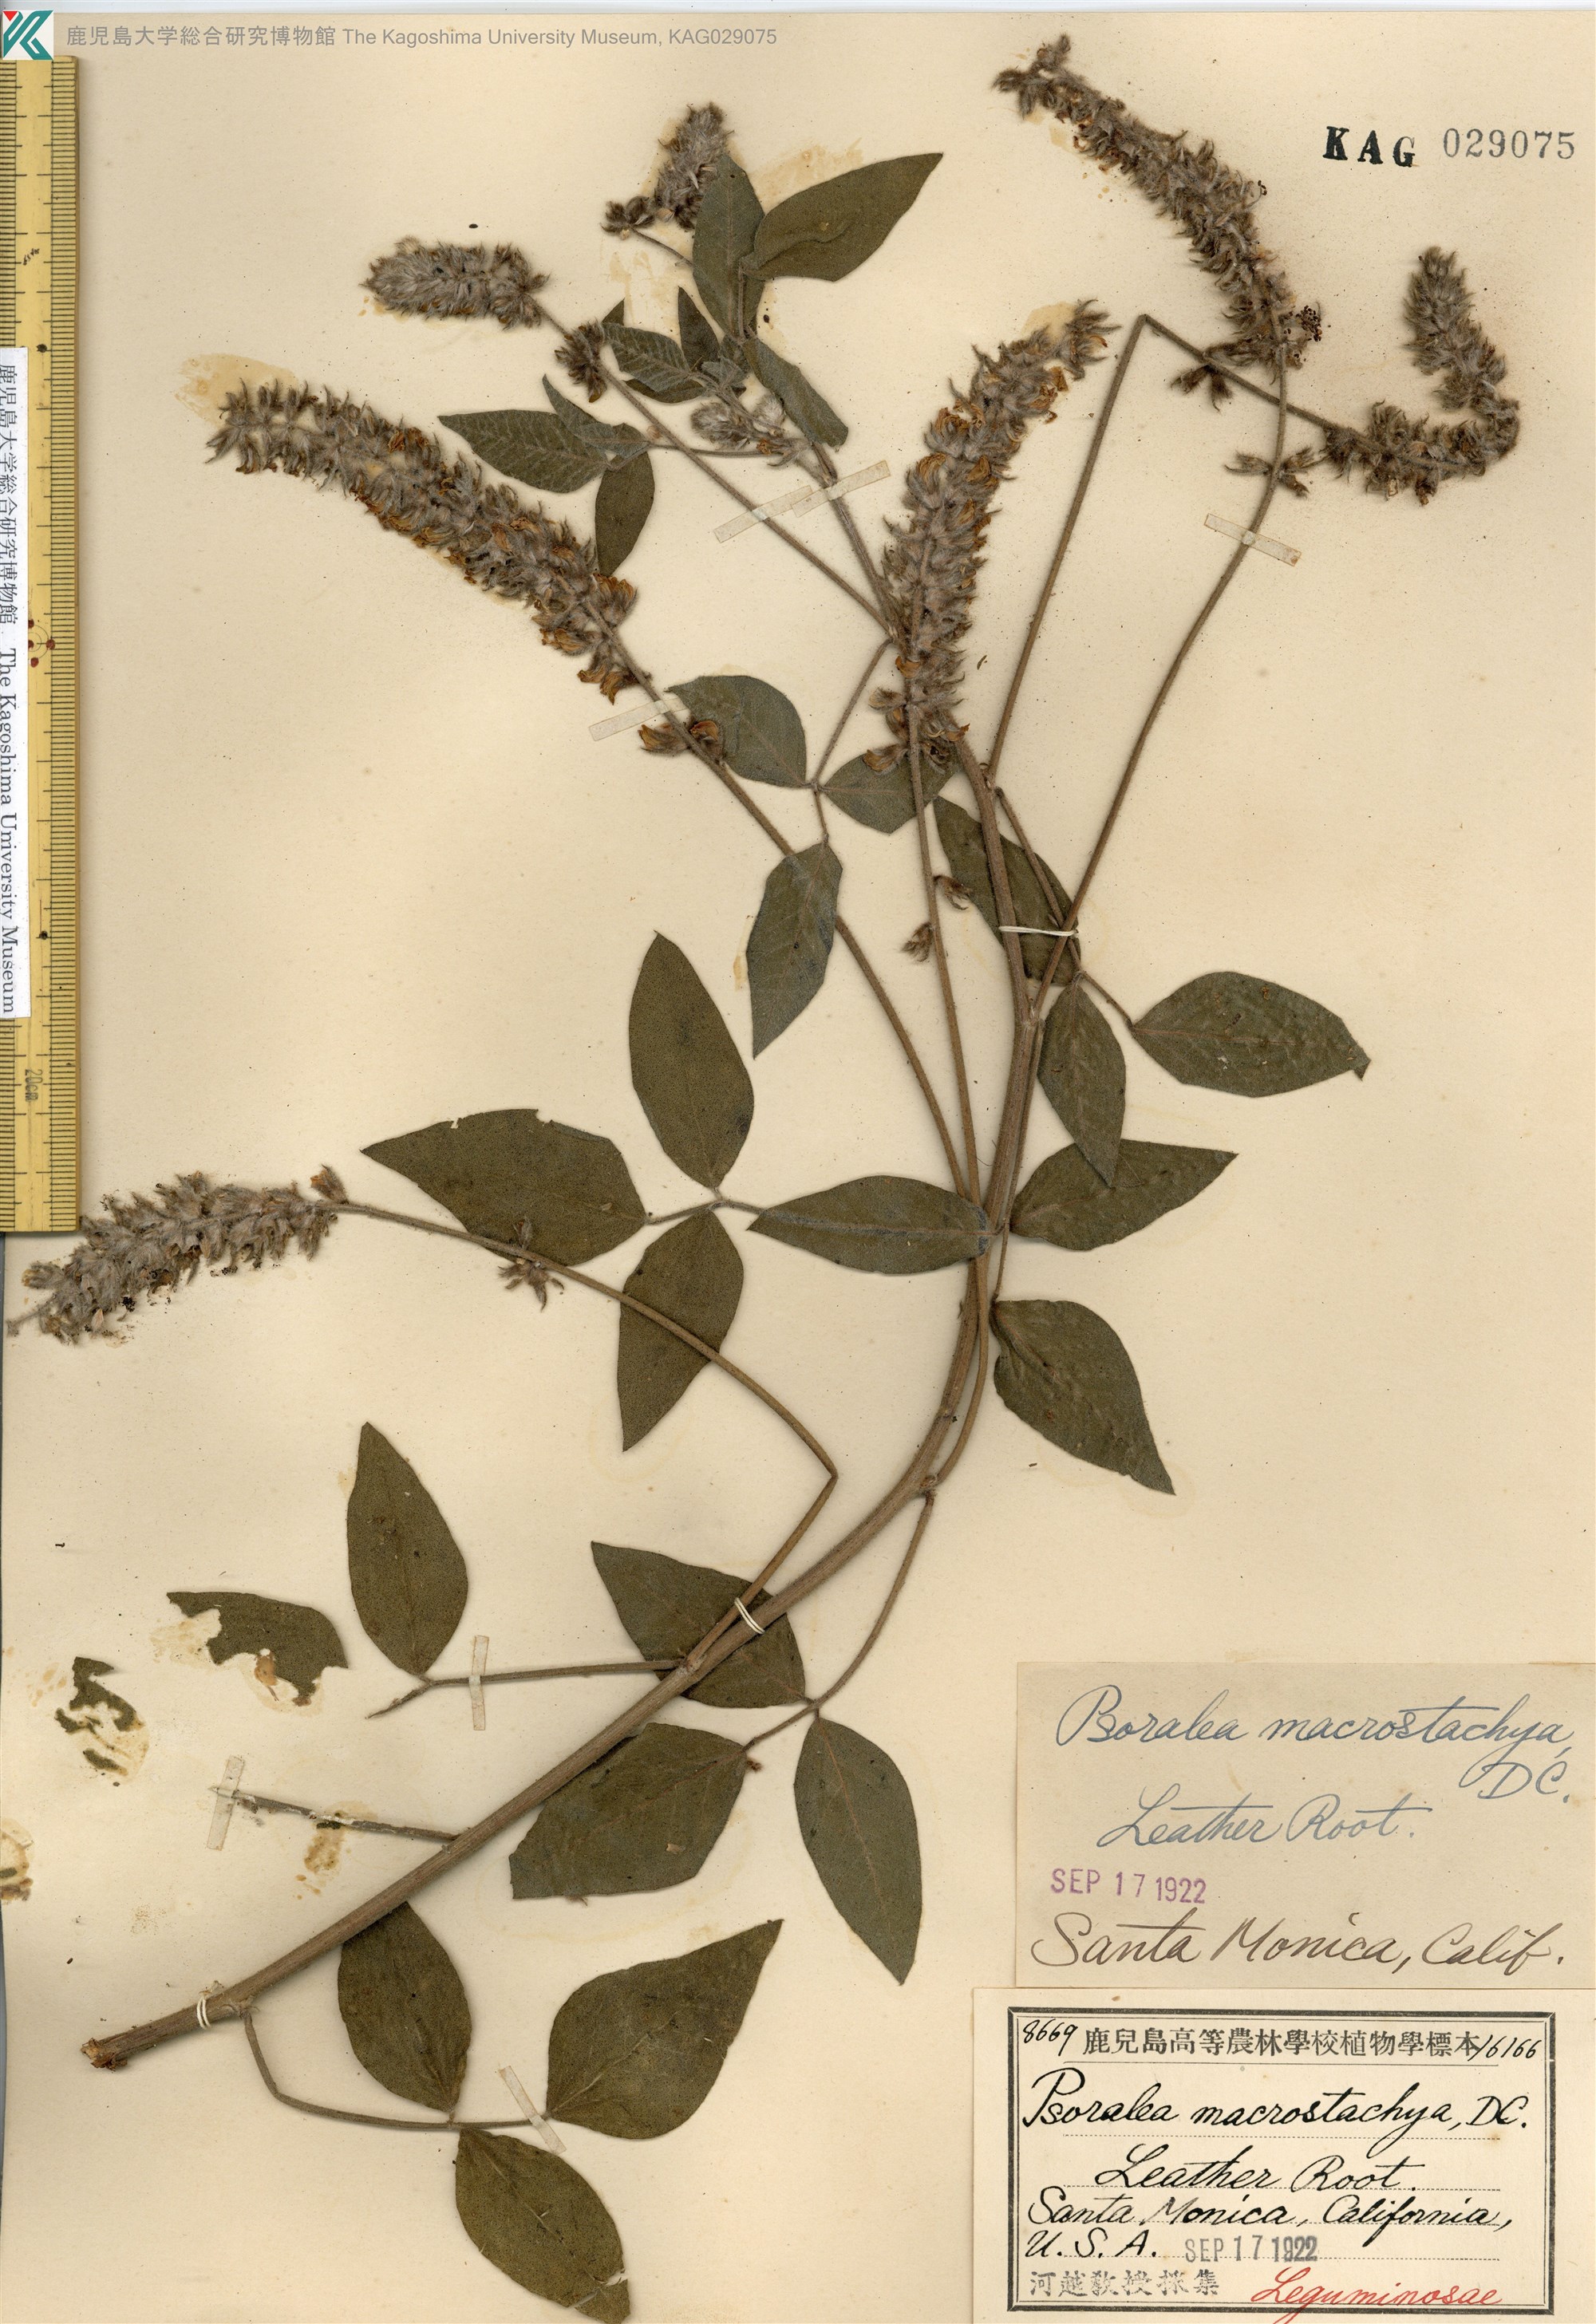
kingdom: Plantae
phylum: Tracheophyta
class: Magnoliopsida
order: Fabales
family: Fabaceae
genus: Hoita
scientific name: Hoita macrostachya
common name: Leatherroot
